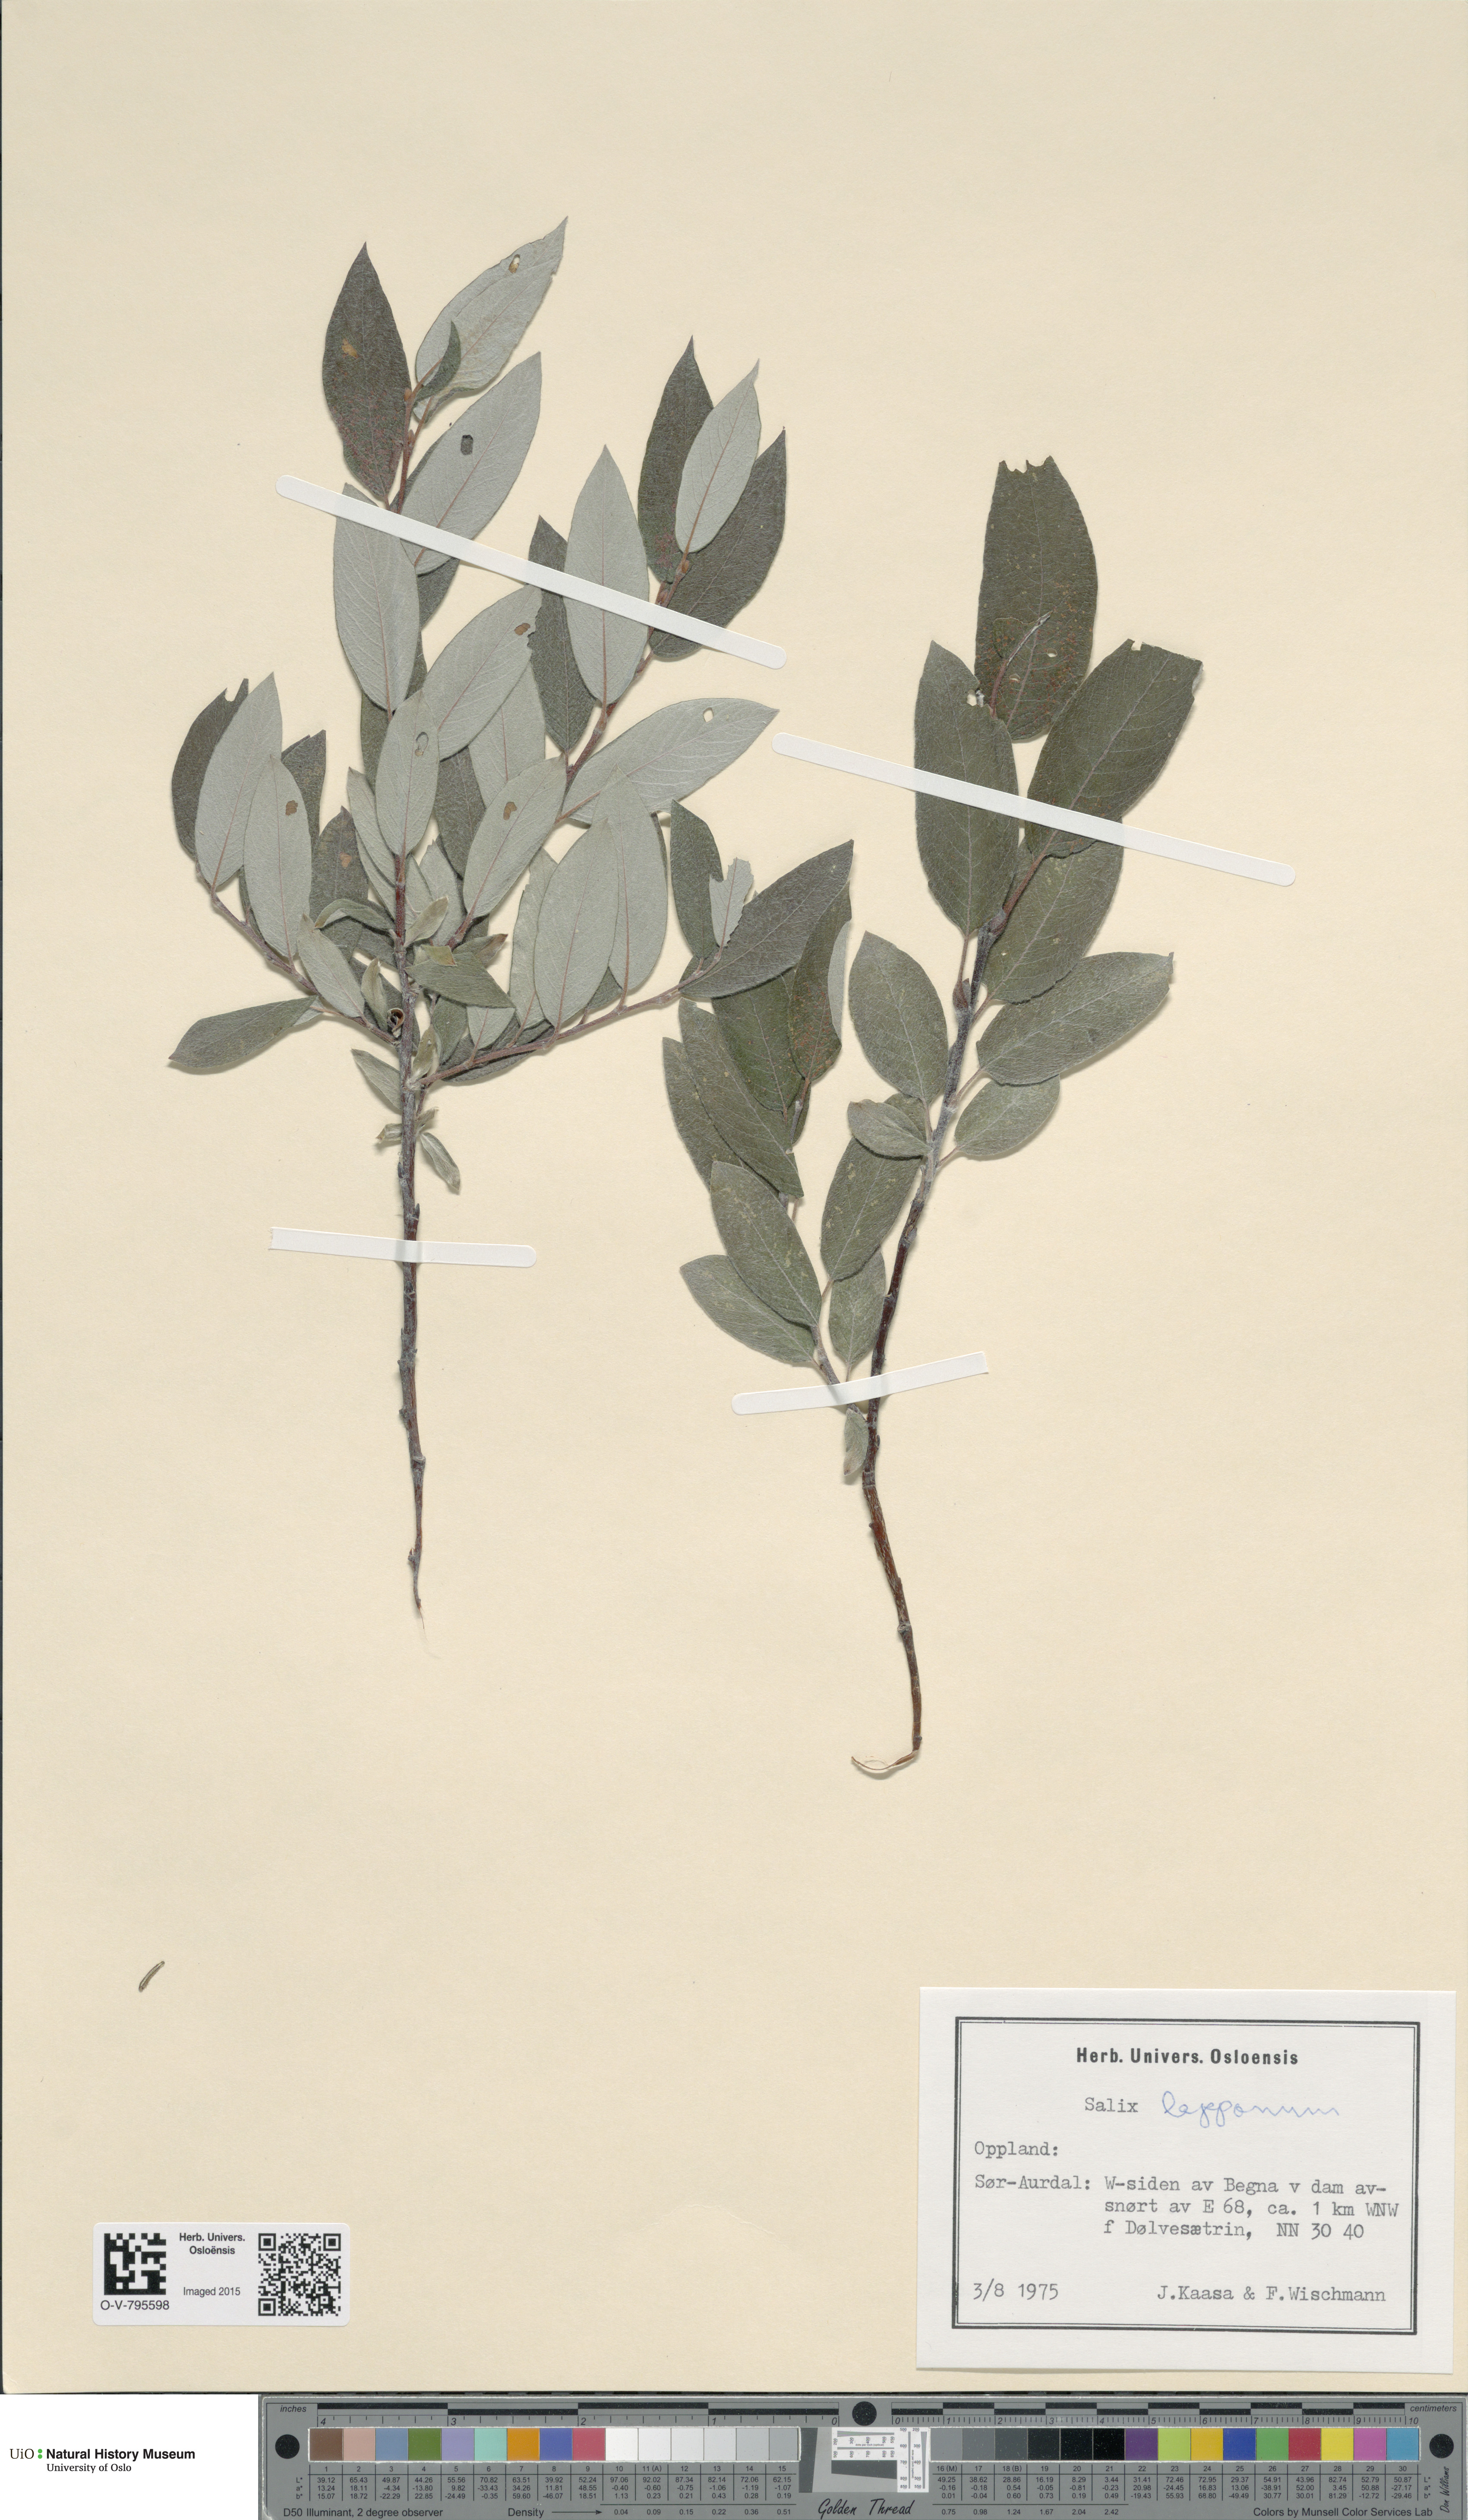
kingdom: Plantae
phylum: Tracheophyta
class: Magnoliopsida
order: Malpighiales
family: Salicaceae
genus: Salix
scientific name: Salix lapponum
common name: Downy willow
